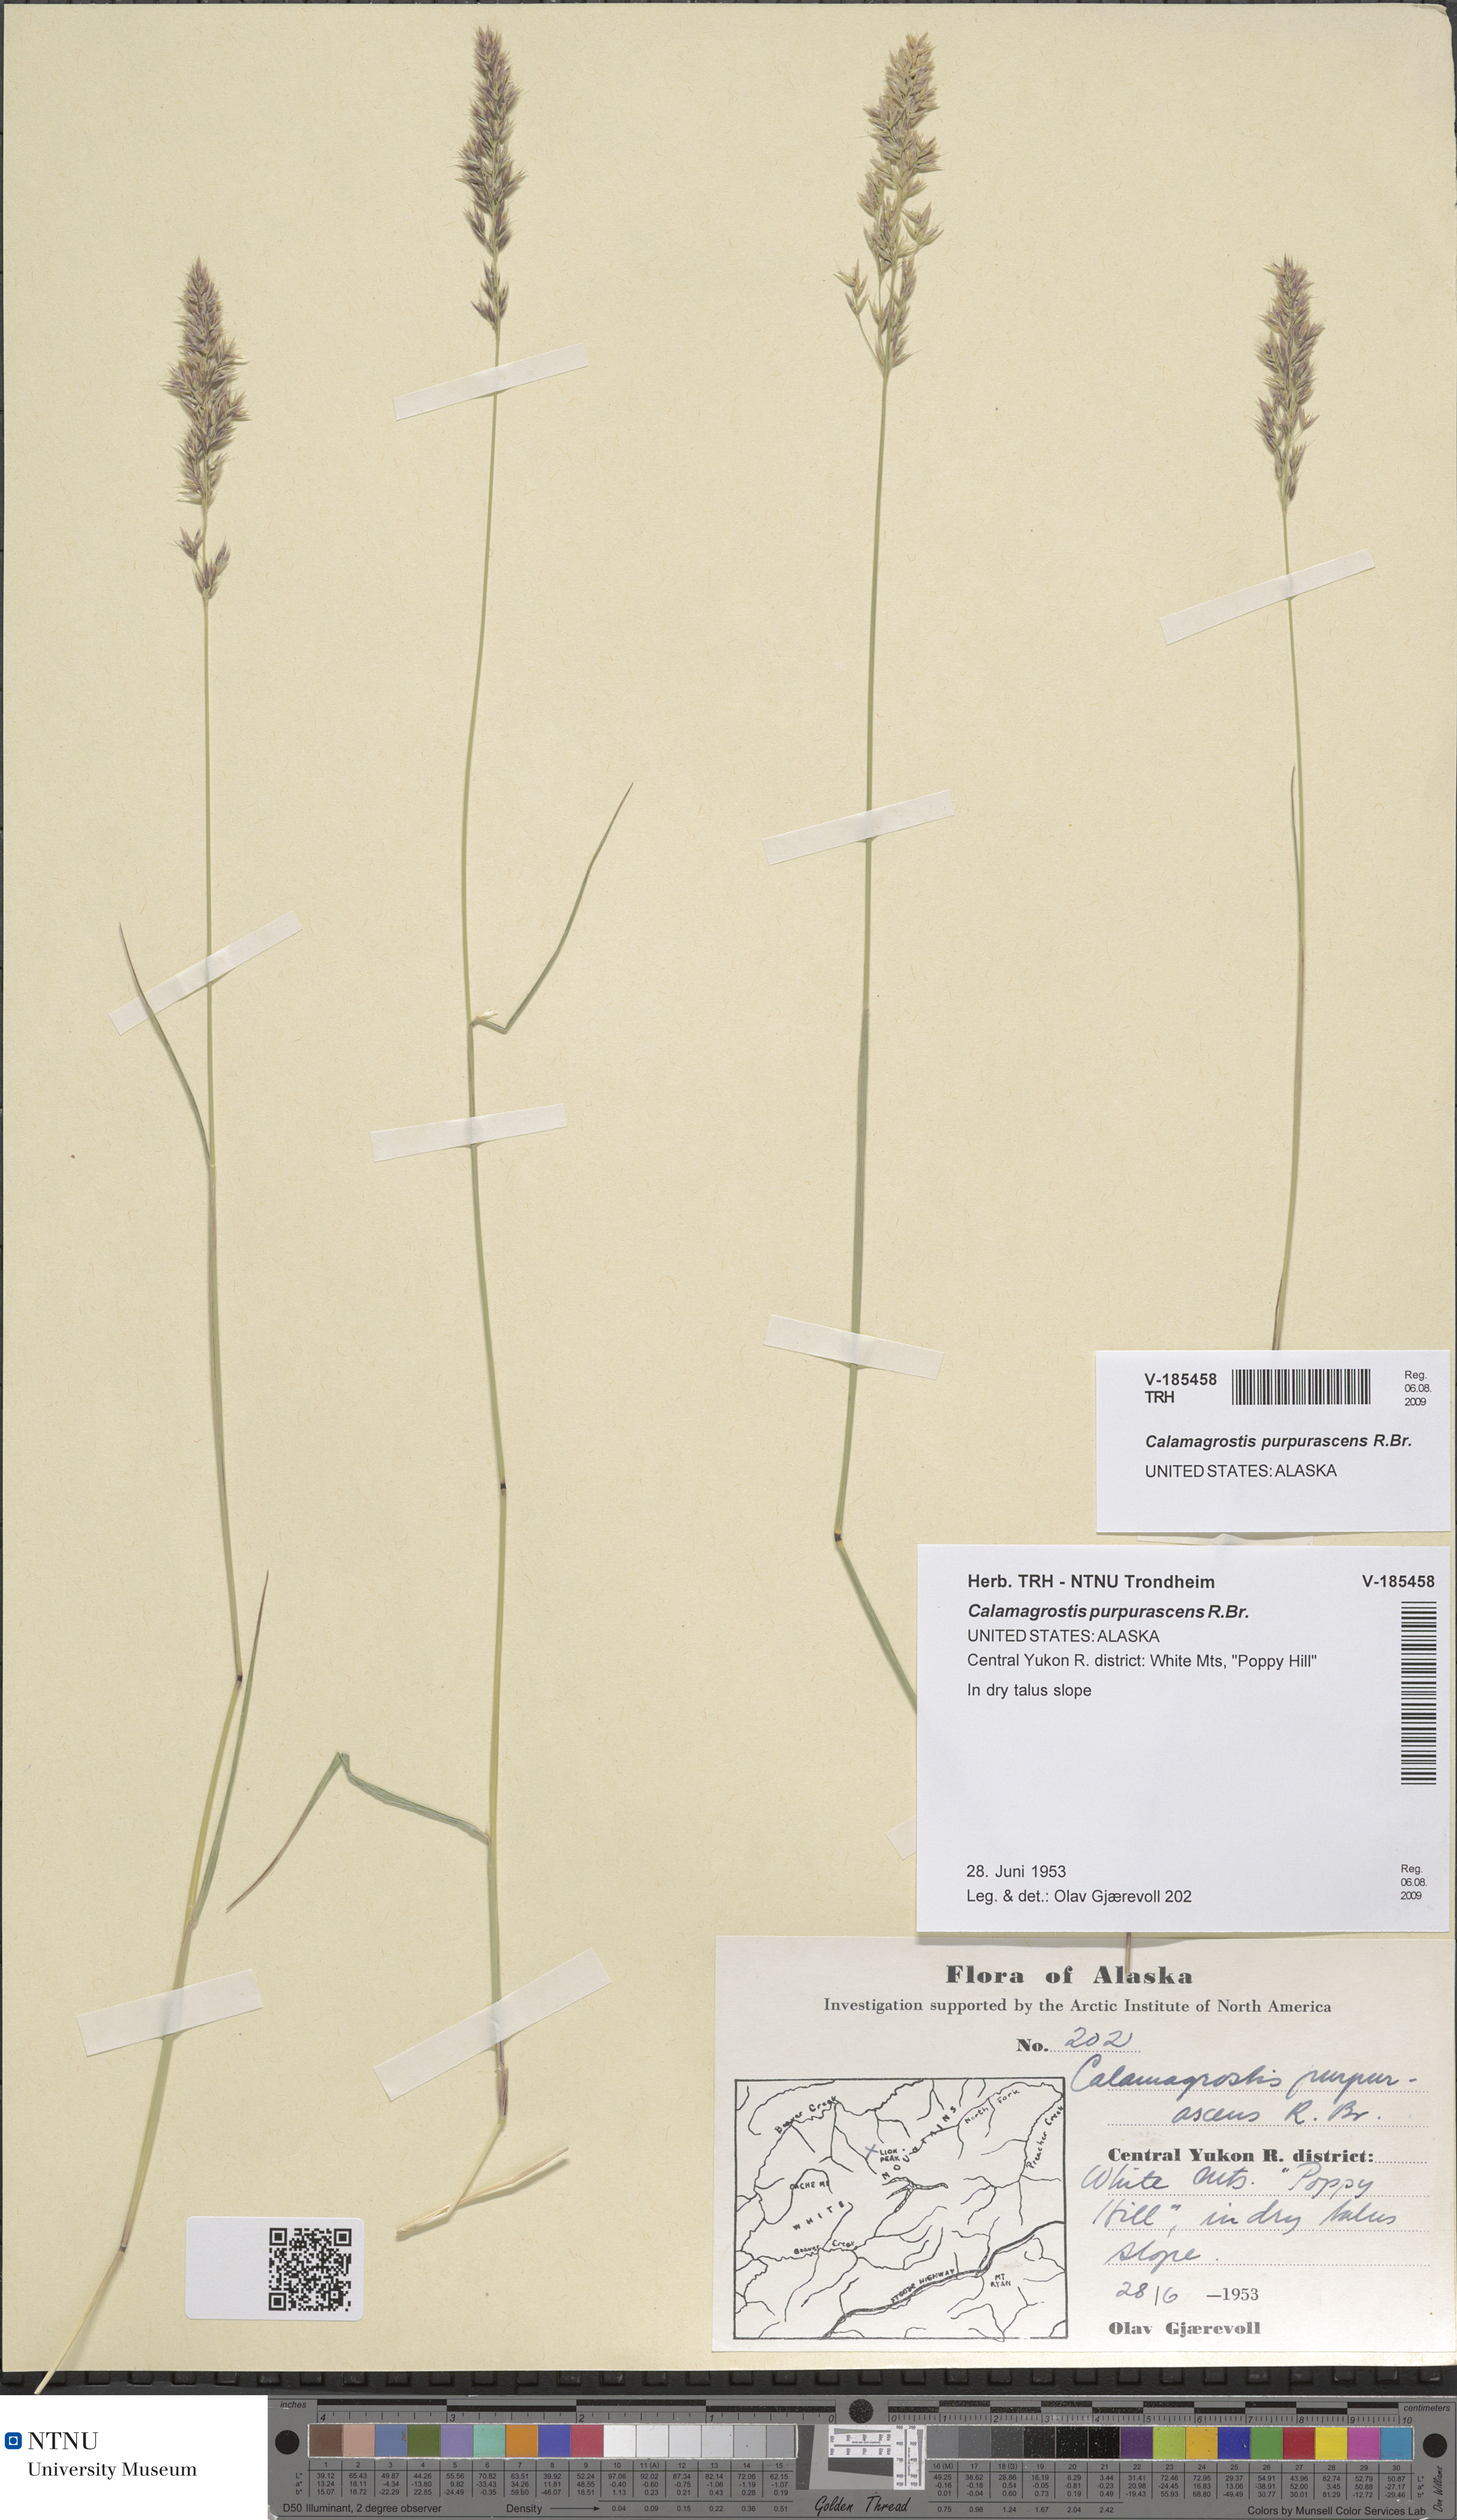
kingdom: Plantae
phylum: Tracheophyta
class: Liliopsida
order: Poales
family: Poaceae
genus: Calamagrostis
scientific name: Calamagrostis purpurascens
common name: Purple reedgrass
